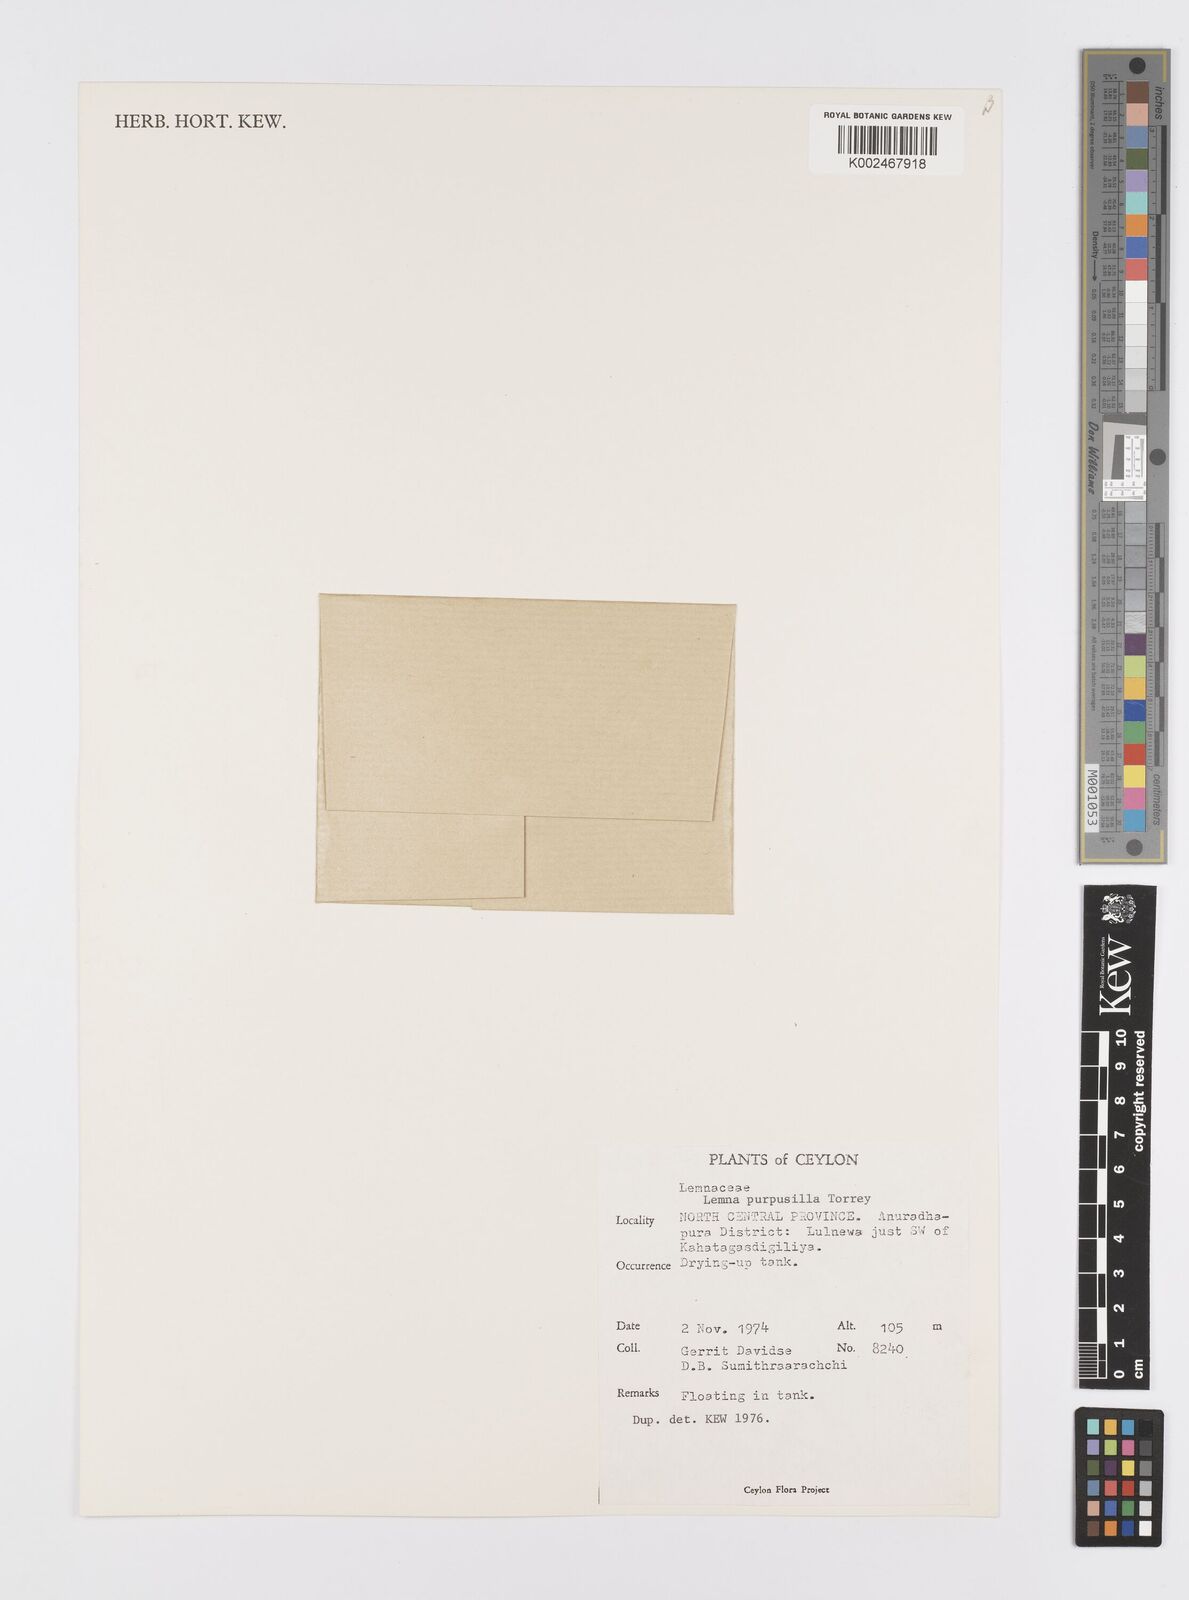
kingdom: Plantae
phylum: Tracheophyta
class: Liliopsida
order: Alismatales
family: Araceae
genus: Lemna
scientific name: Lemna perpusilla
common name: Duckweed
